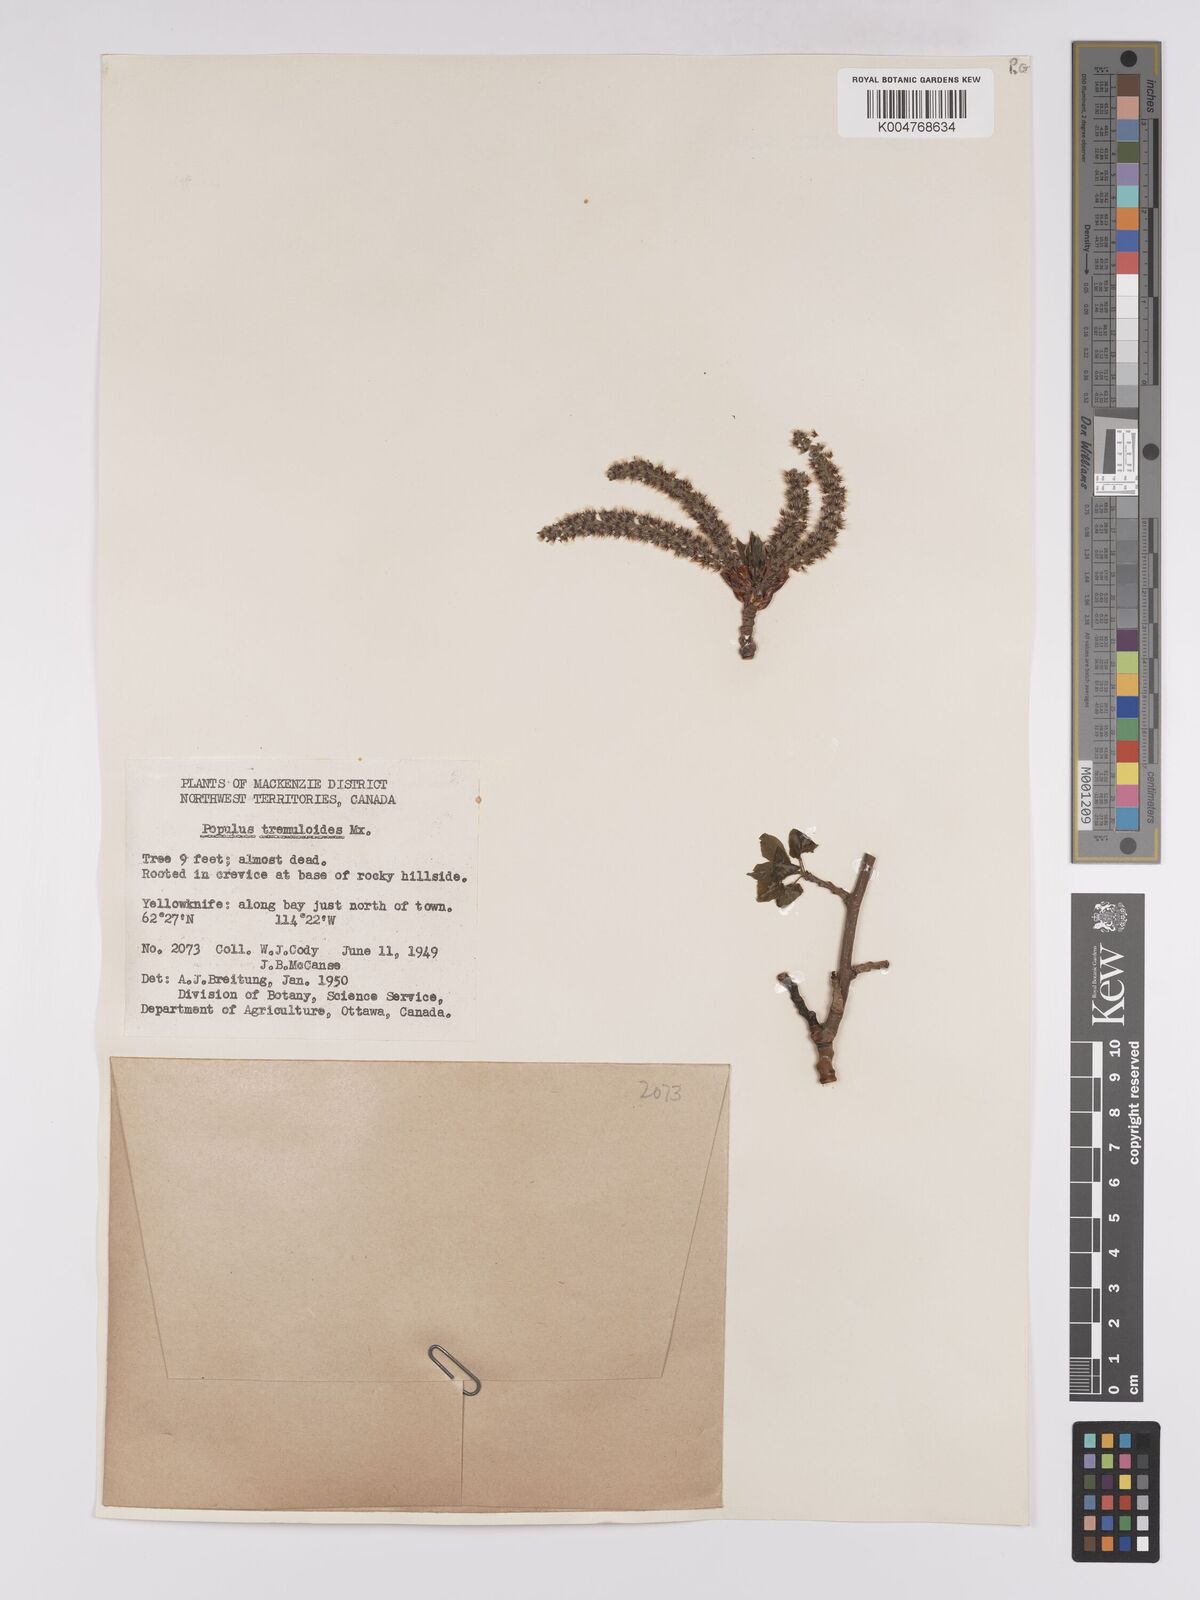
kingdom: Plantae
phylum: Tracheophyta
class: Magnoliopsida
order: Malpighiales
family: Salicaceae
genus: Populus
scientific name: Populus
